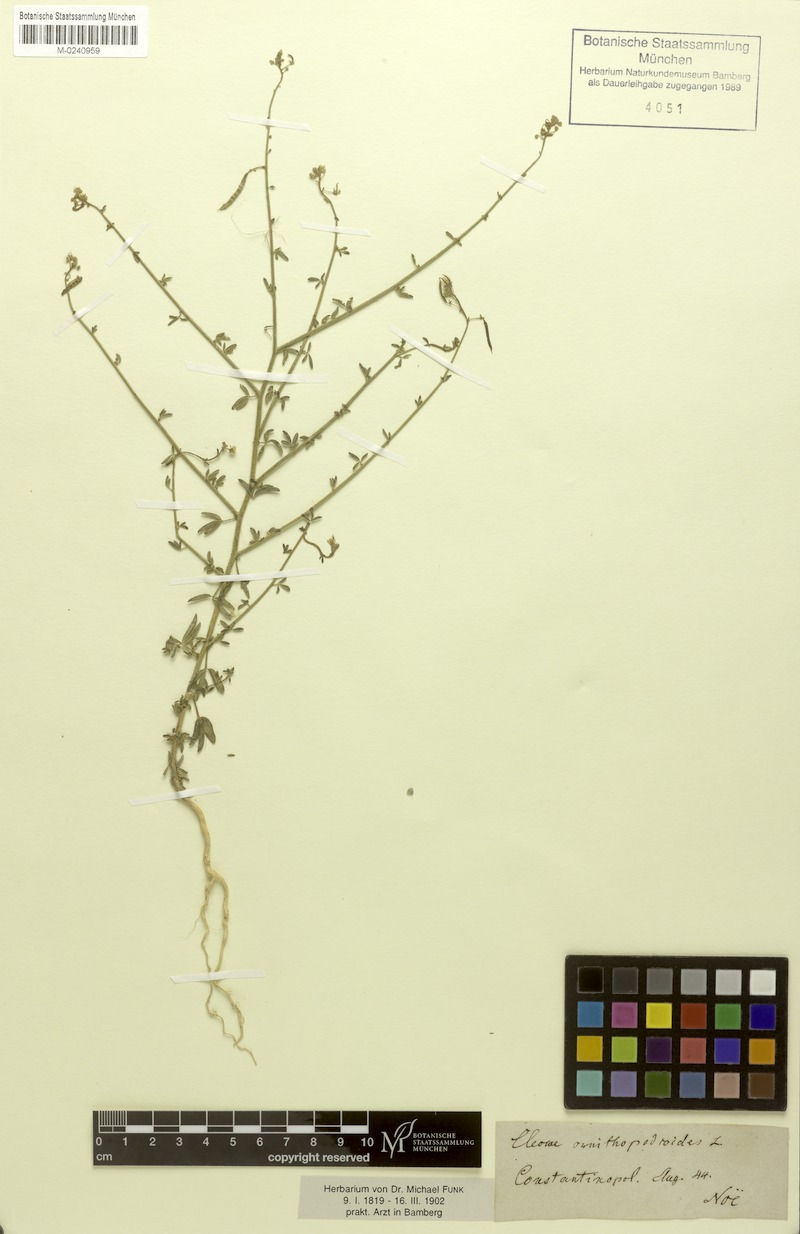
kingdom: Plantae
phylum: Tracheophyta
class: Magnoliopsida
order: Brassicales
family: Cleomaceae
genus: Cleome
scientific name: Cleome ornithopodioides
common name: Bird spiderflower
